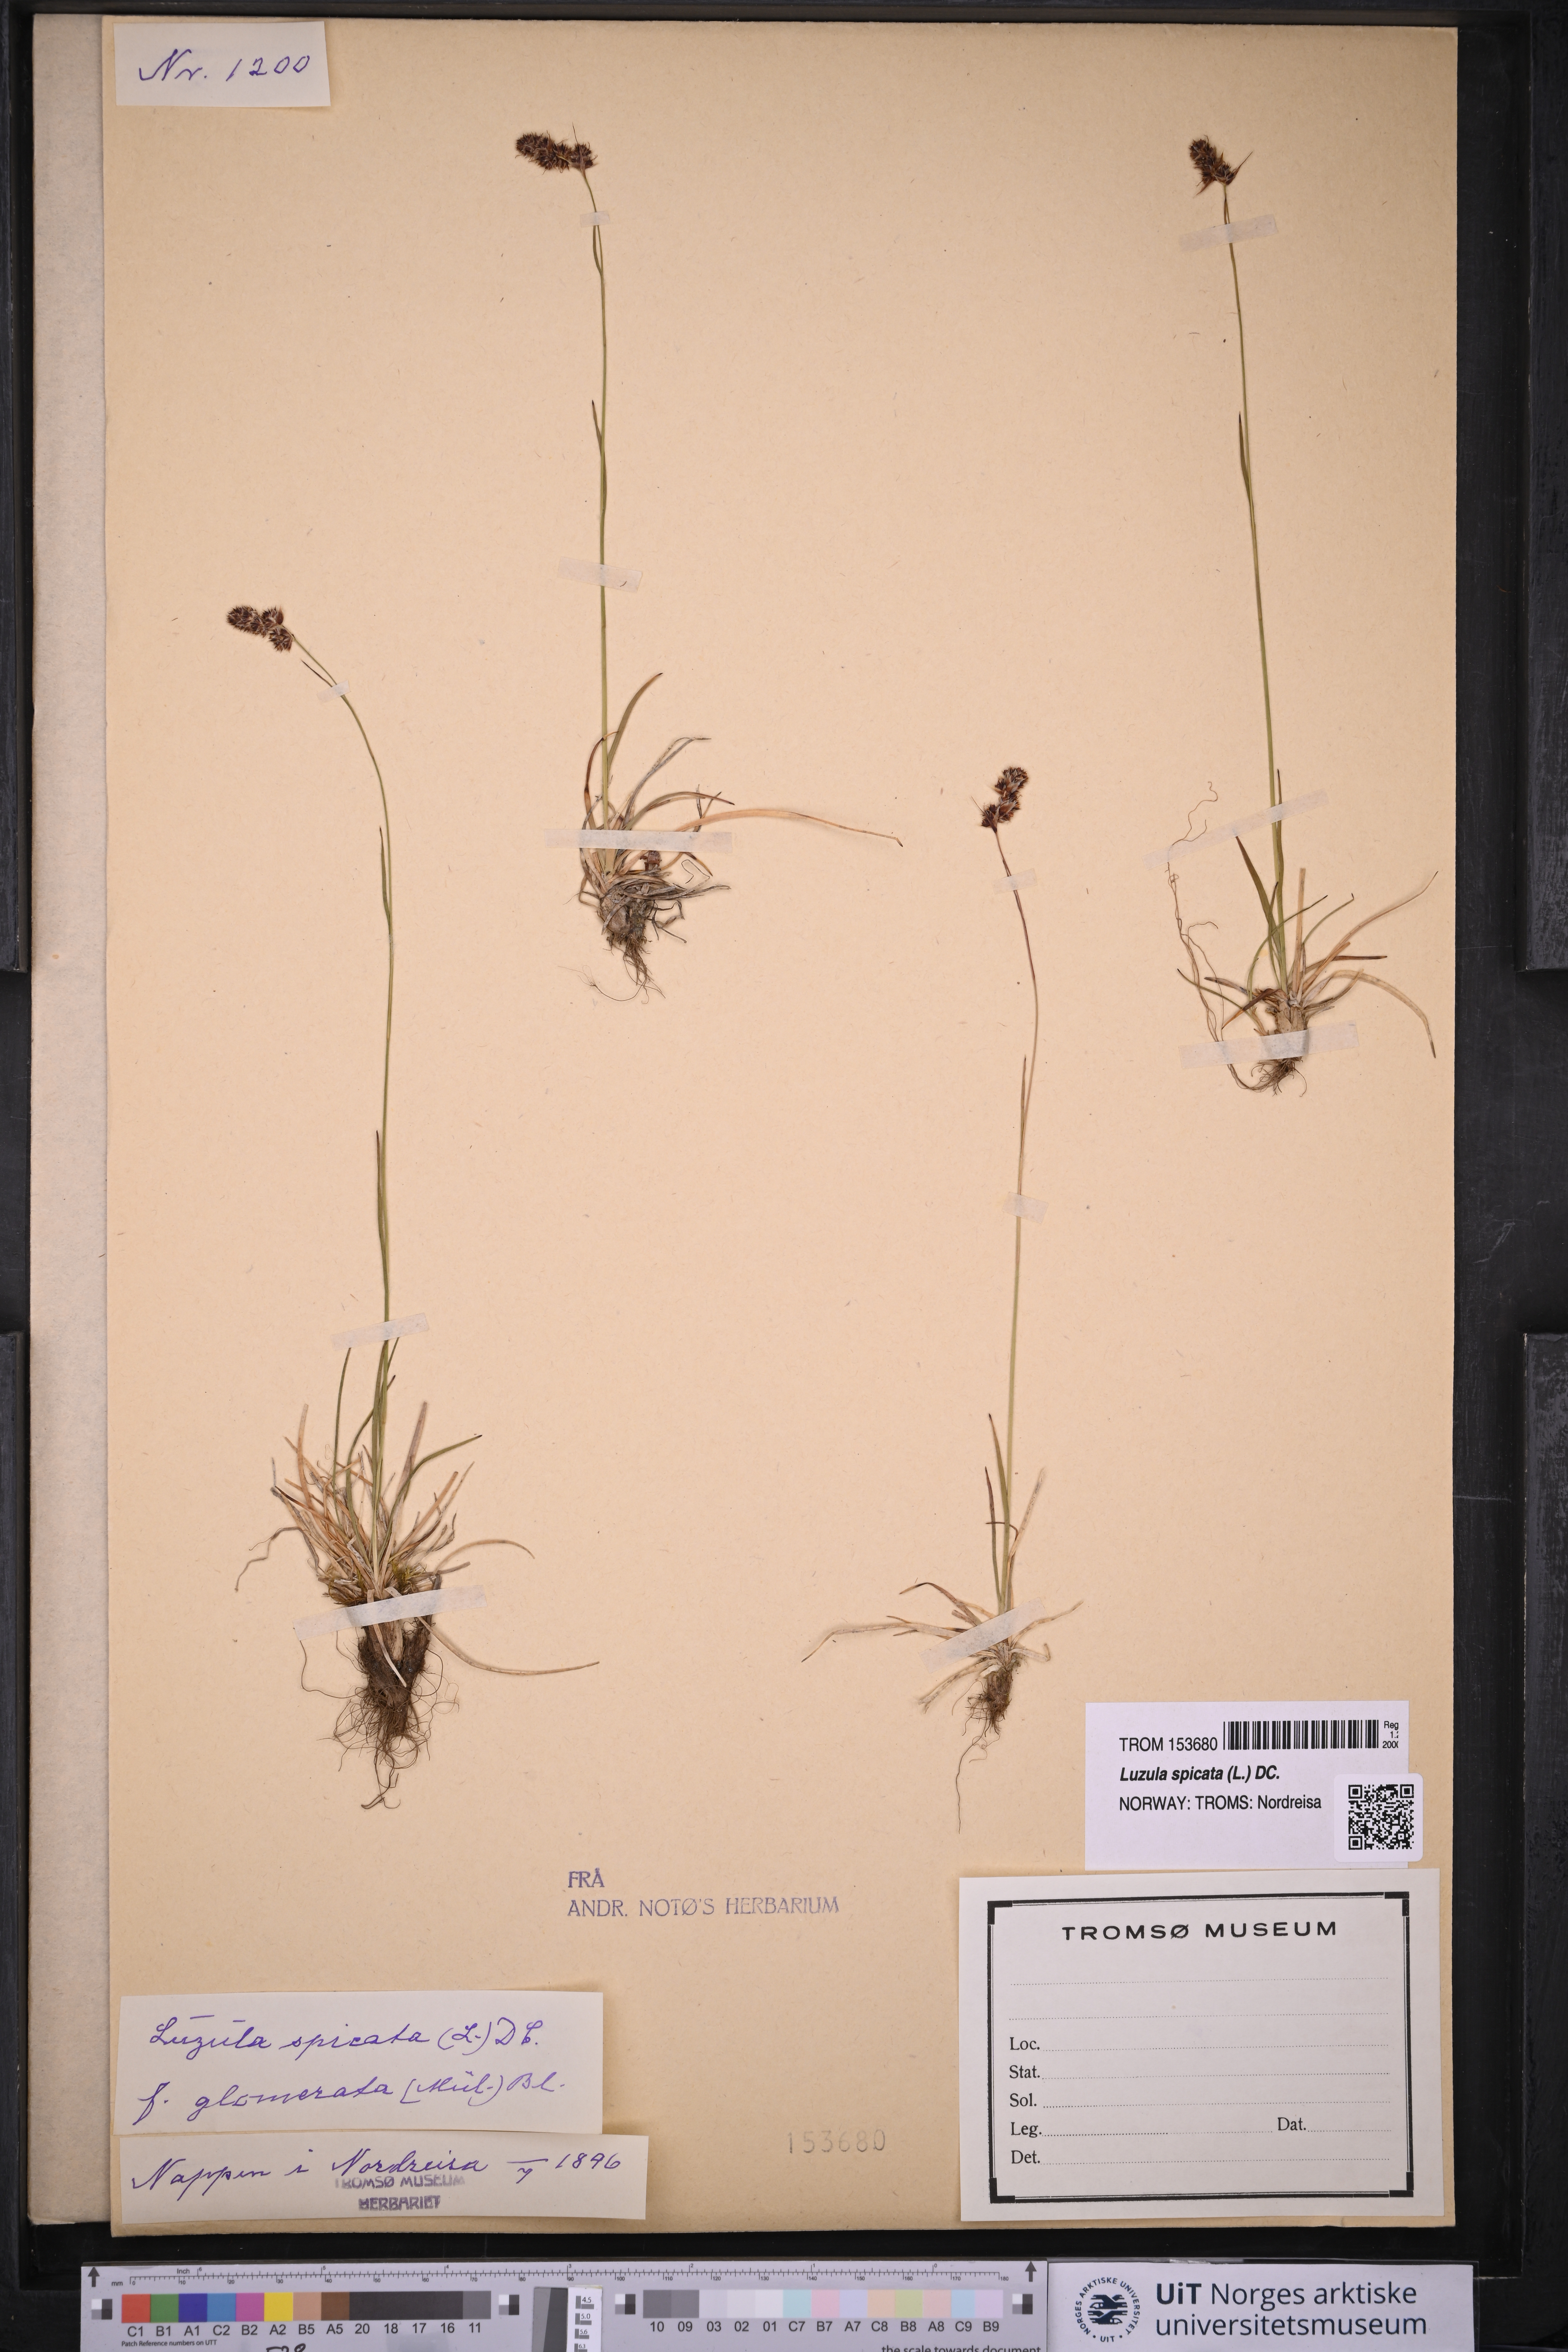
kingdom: Plantae
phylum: Tracheophyta
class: Liliopsida
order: Poales
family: Juncaceae
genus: Luzula
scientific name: Luzula spicata
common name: Spiked wood-rush
